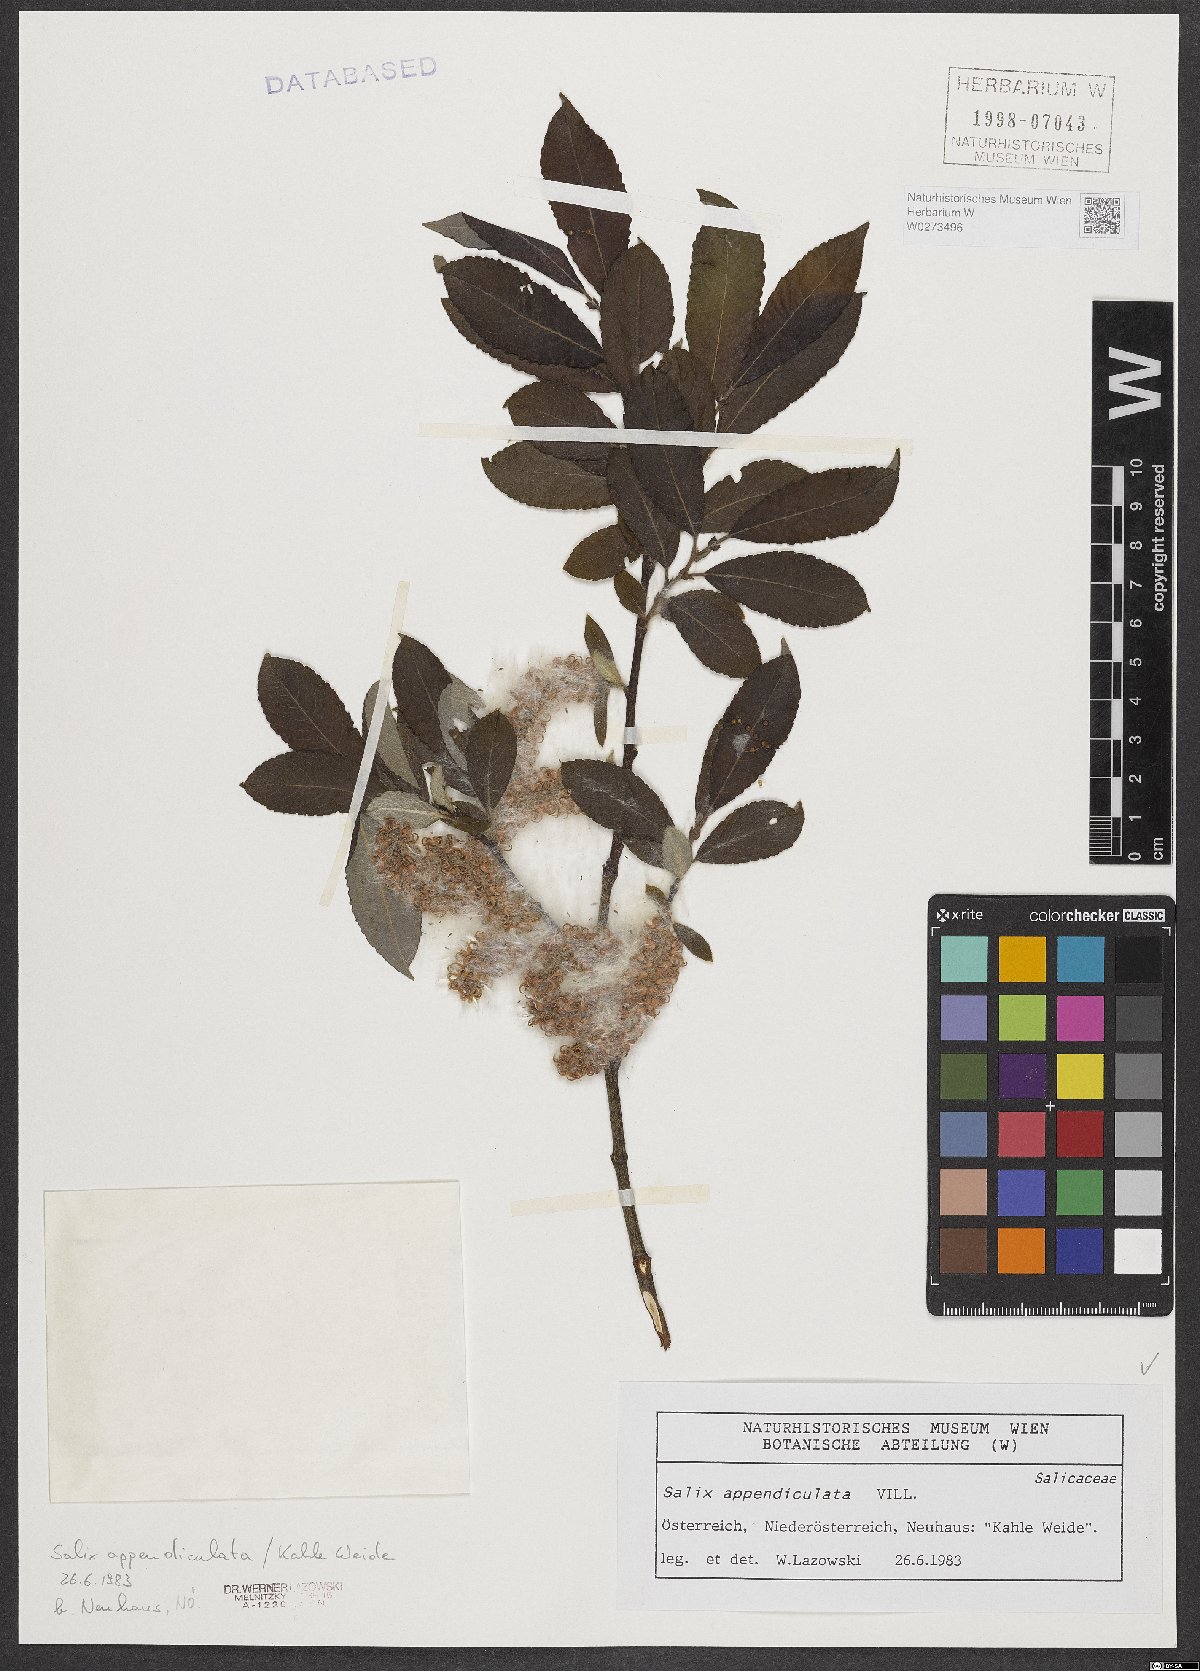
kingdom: Plantae
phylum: Tracheophyta
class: Magnoliopsida
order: Malpighiales
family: Salicaceae
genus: Salix
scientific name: Salix appendiculata
